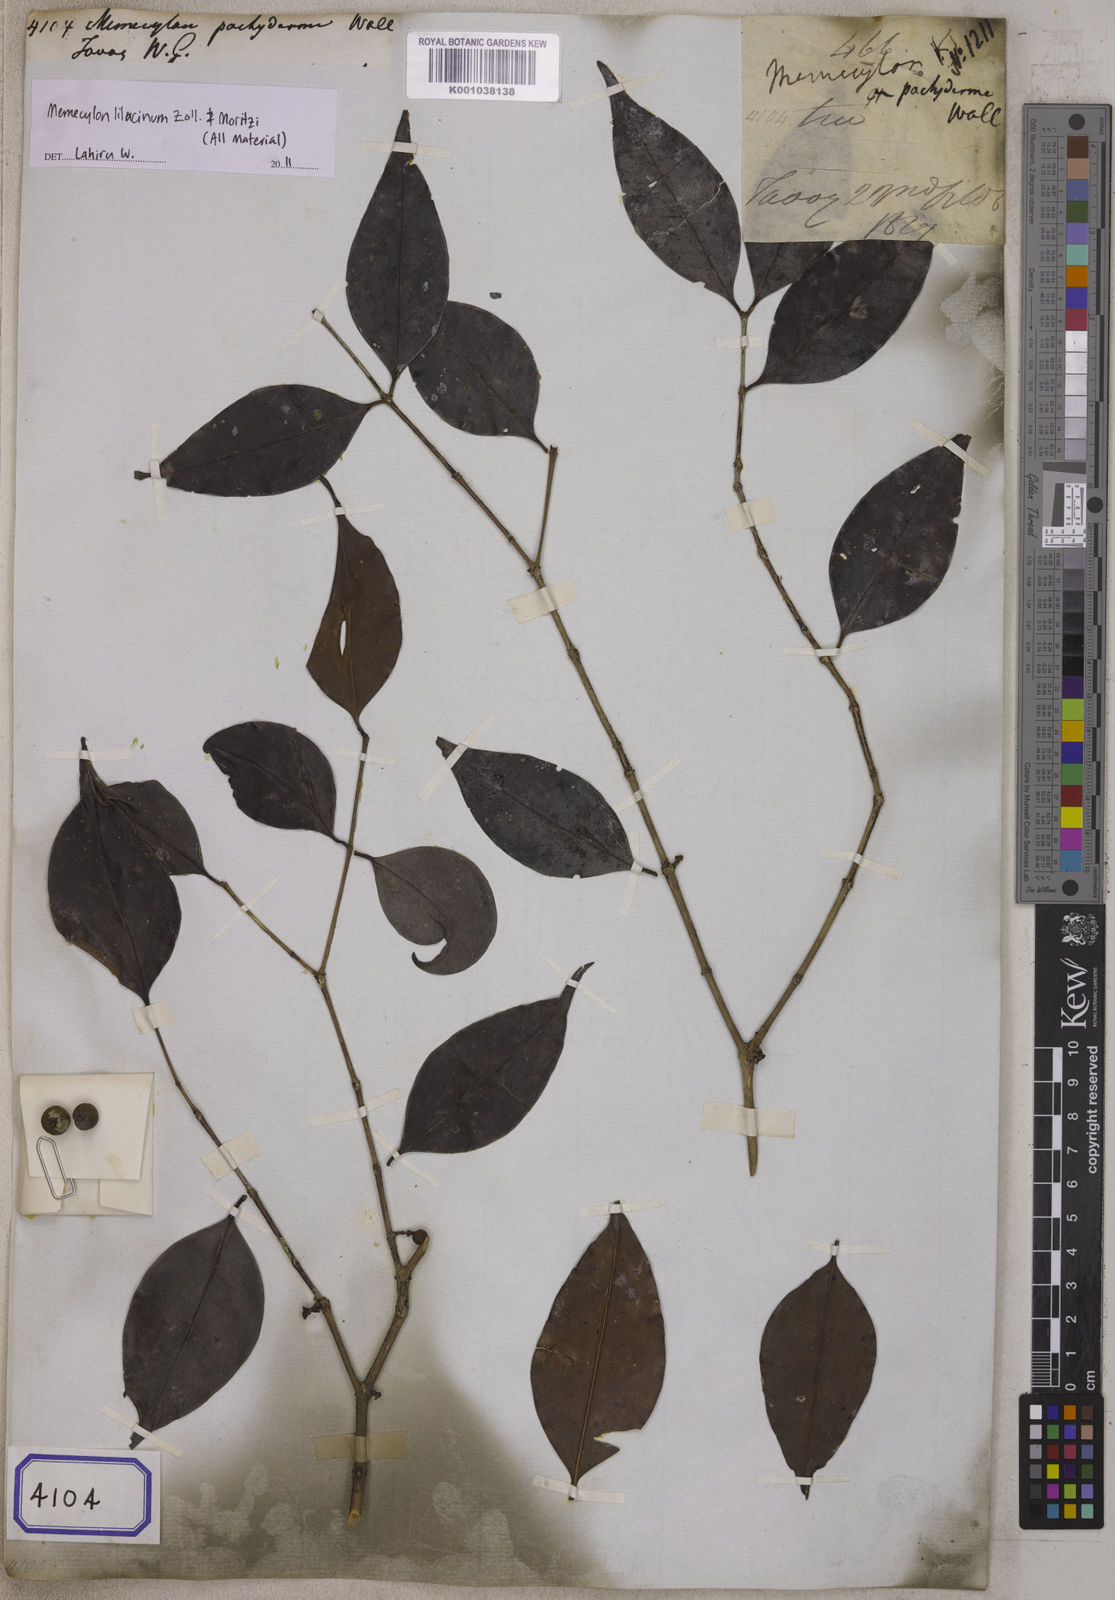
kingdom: Plantae
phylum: Tracheophyta
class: Magnoliopsida
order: Myrtales
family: Melastomataceae
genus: Memecylon
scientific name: Memecylon lilacinum
